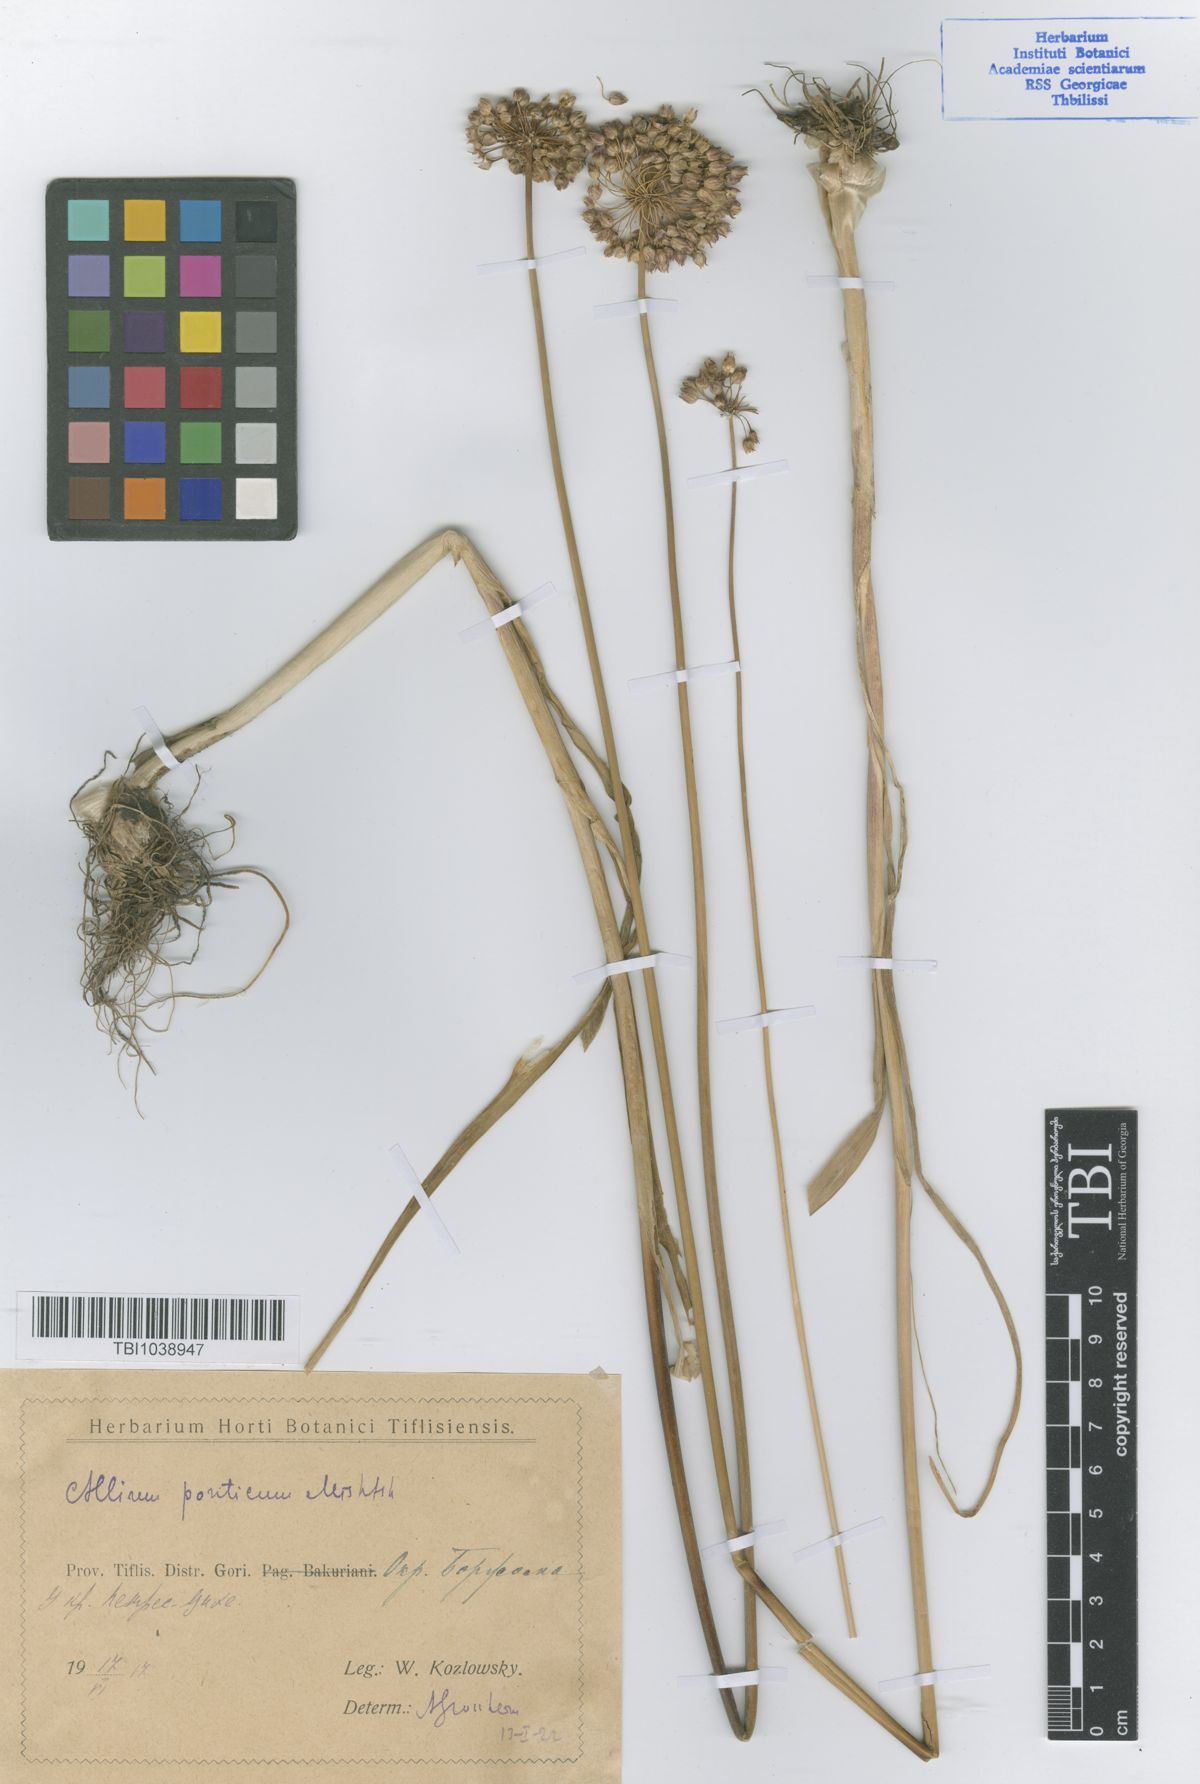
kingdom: Plantae
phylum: Tracheophyta
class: Liliopsida
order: Asparagales
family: Amaryllidaceae
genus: Allium
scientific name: Allium ponticum
